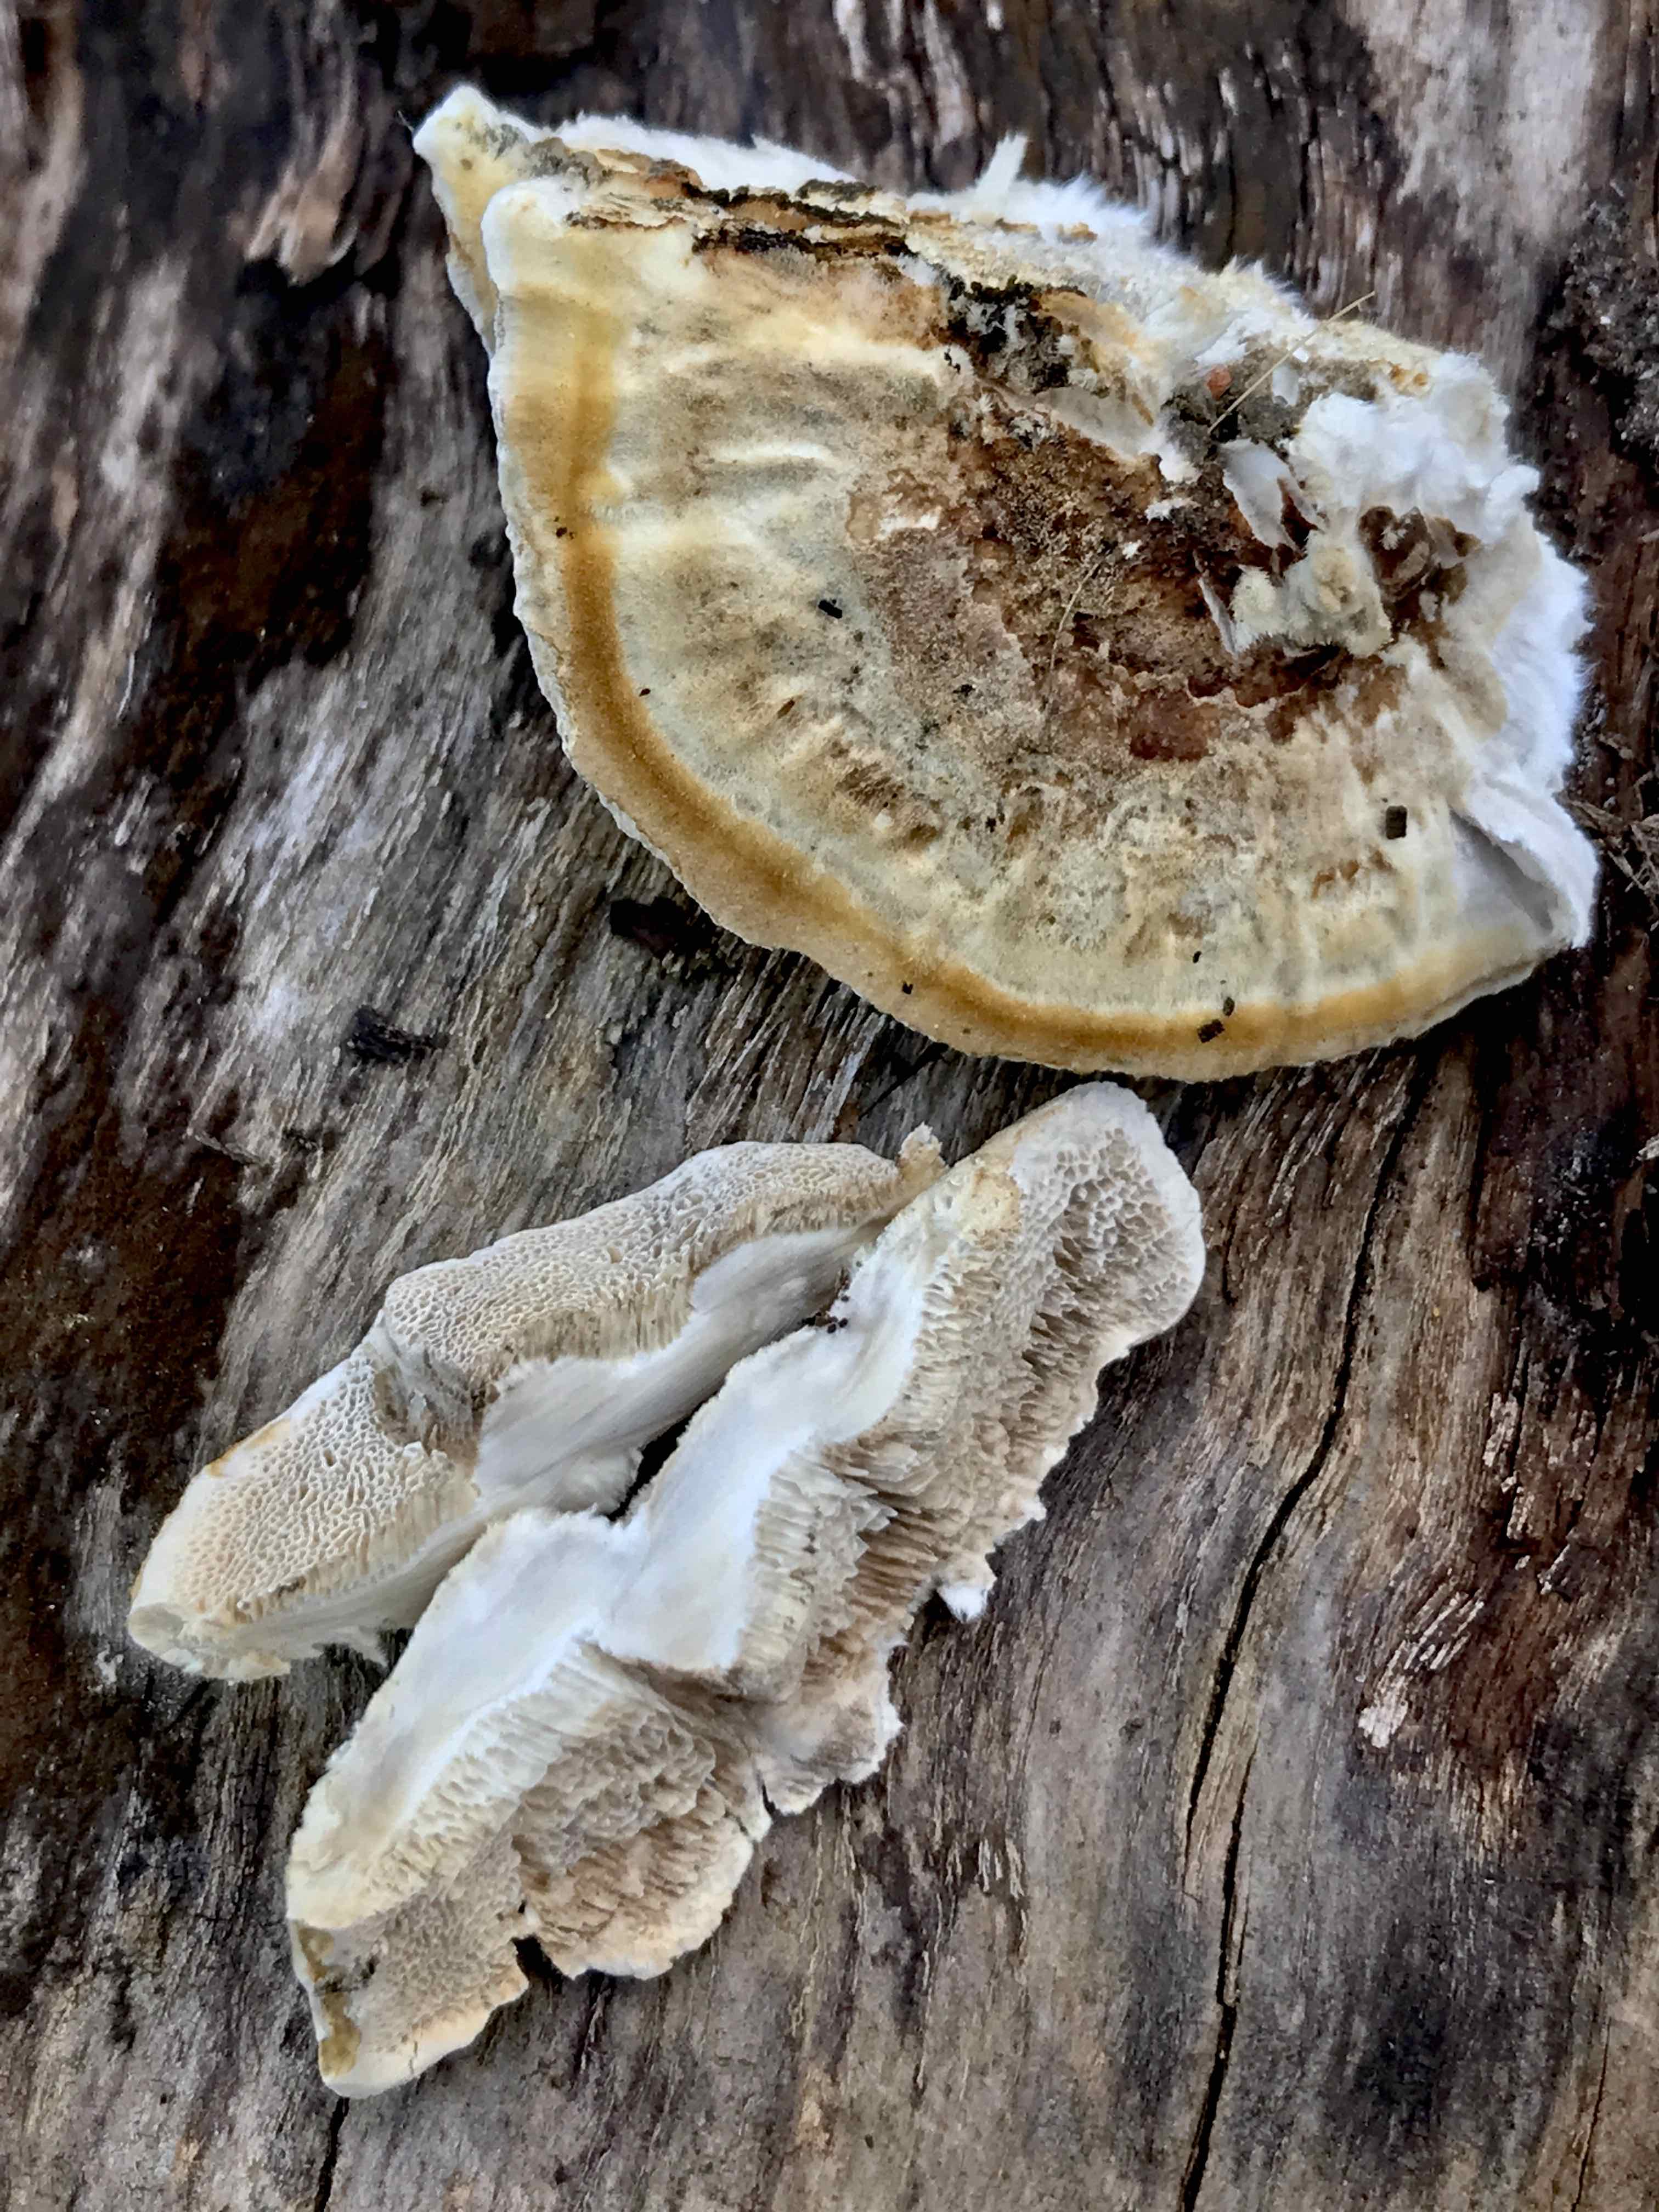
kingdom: Fungi
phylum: Basidiomycota
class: Agaricomycetes
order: Polyporales
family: Phanerochaetaceae
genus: Bjerkandera
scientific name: Bjerkandera fumosa
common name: grågul sodporesvamp
